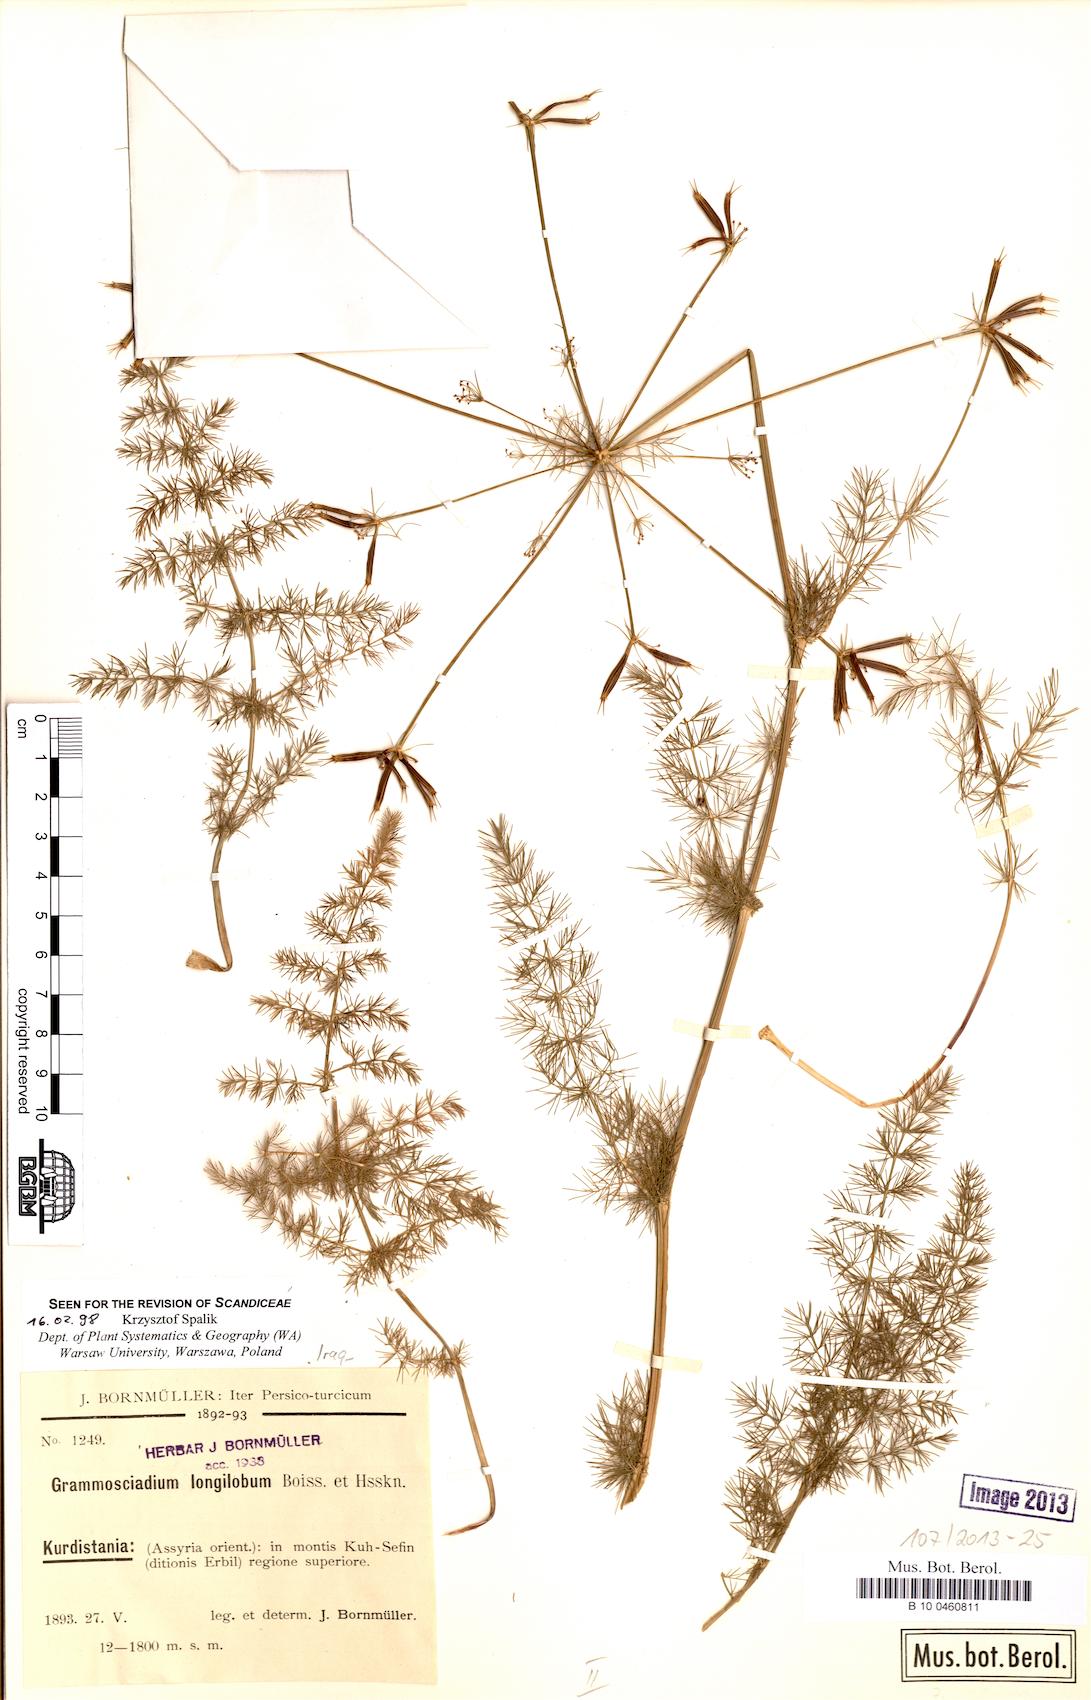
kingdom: Plantae
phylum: Tracheophyta
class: Magnoliopsida
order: Apiales
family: Apiaceae
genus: Grammosciadium
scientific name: Grammosciadium scabridum
